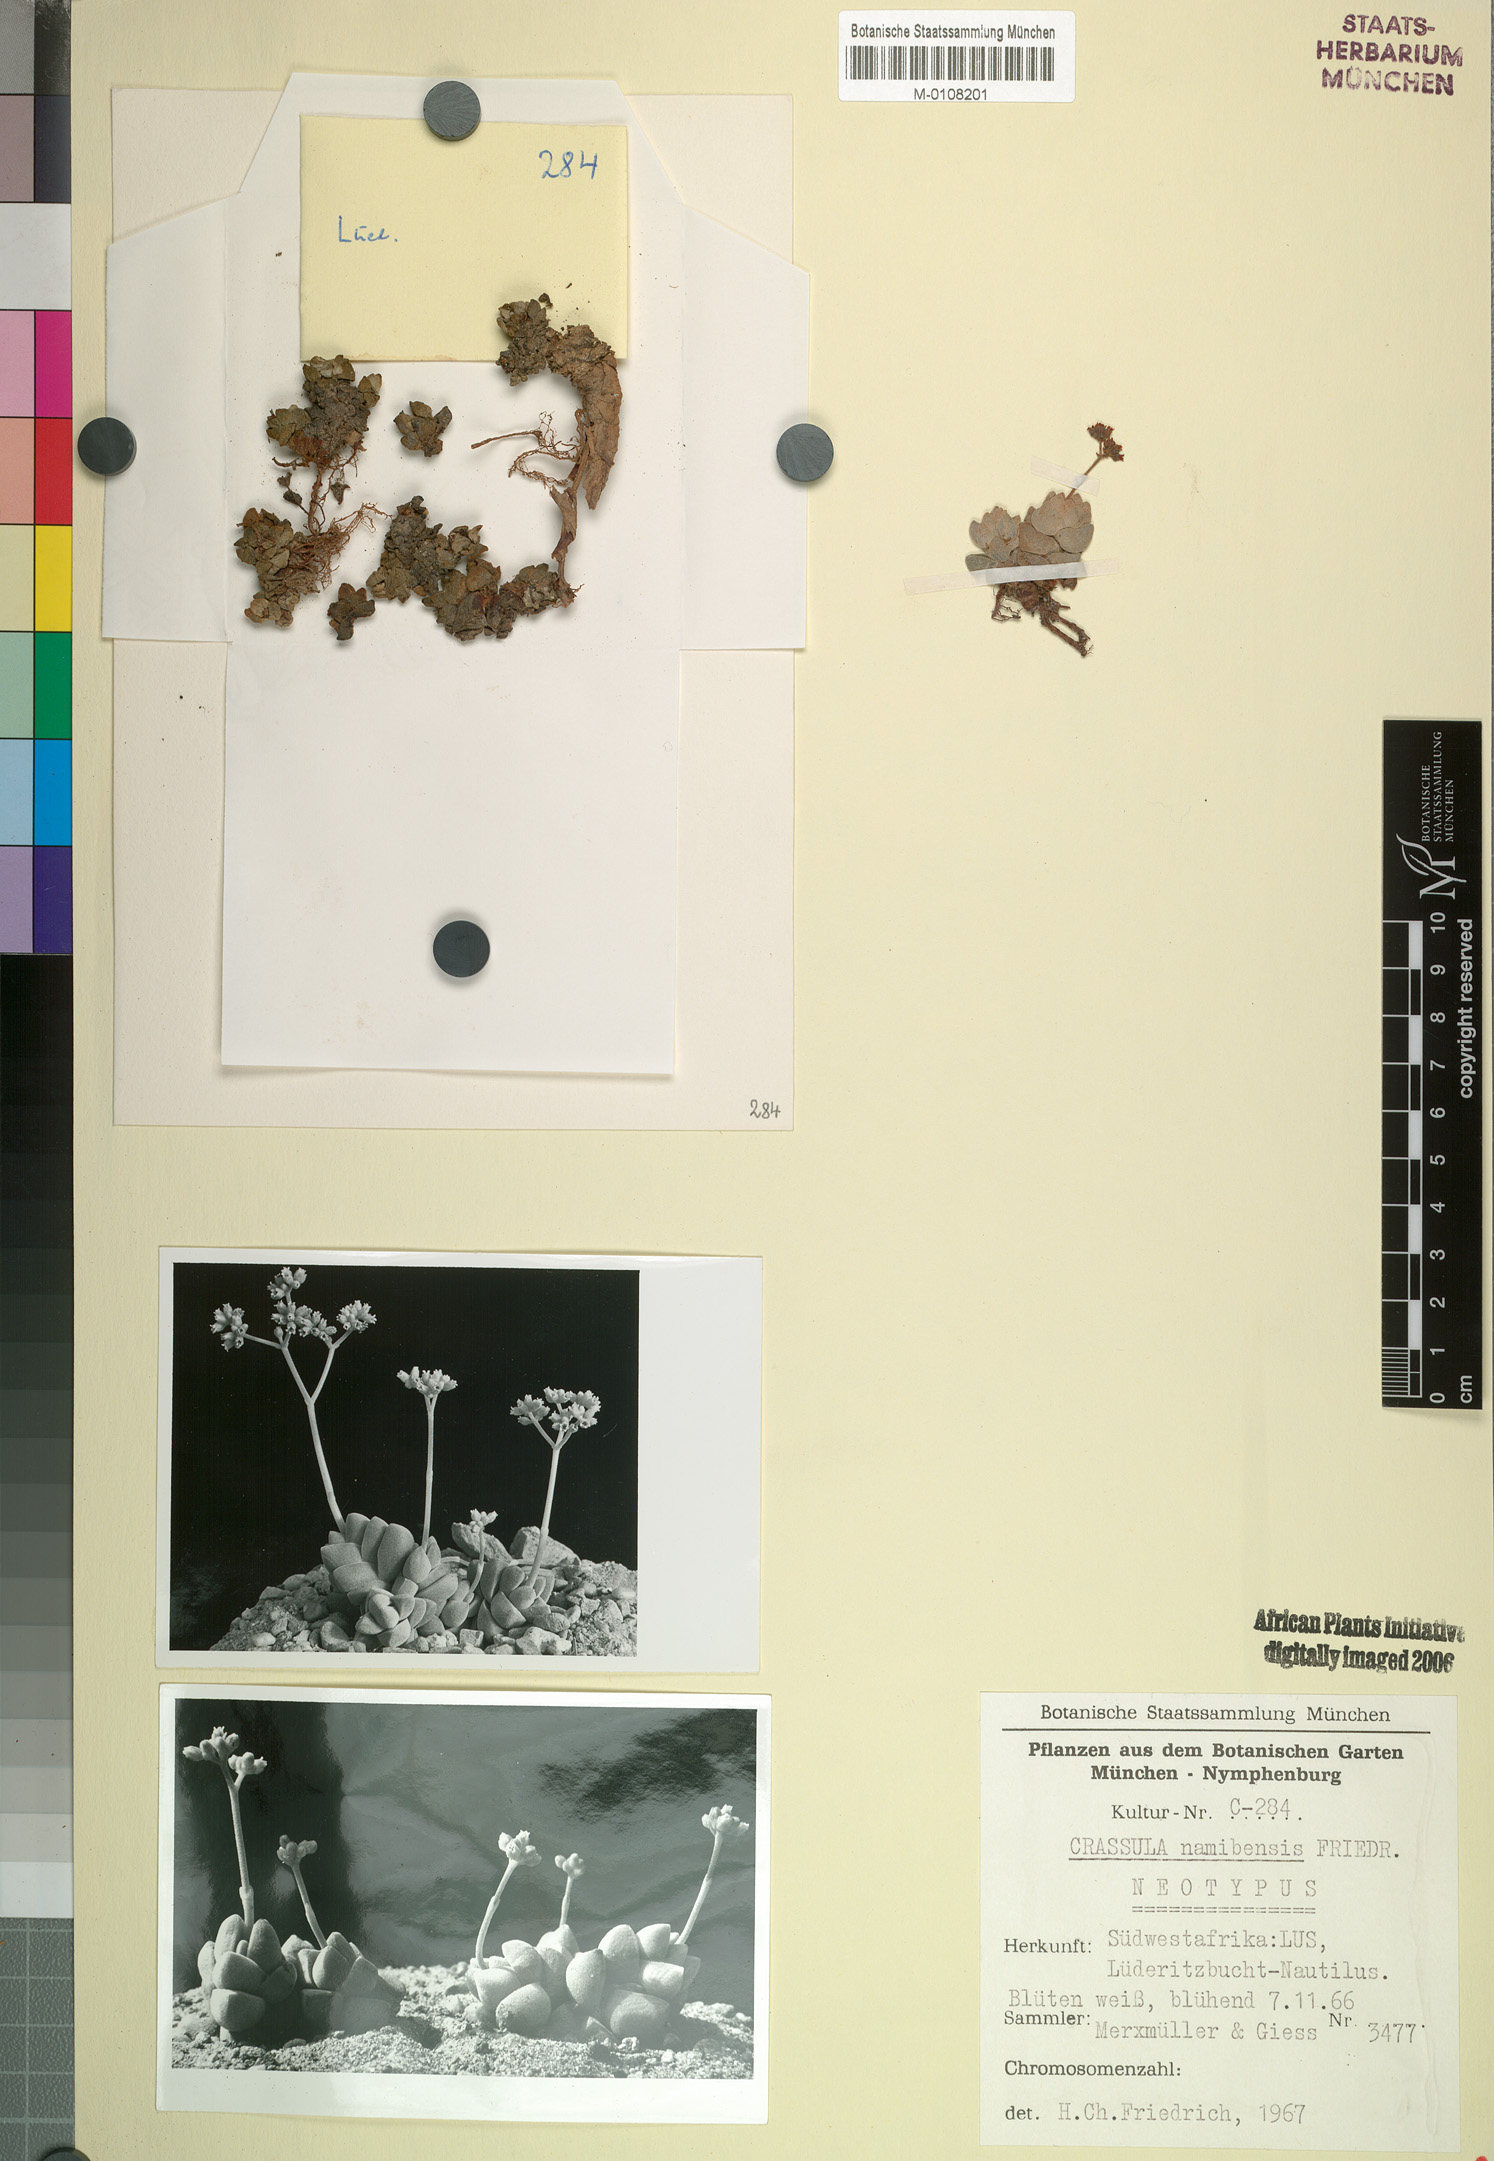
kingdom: Plantae
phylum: Tracheophyta
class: Magnoliopsida
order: Saxifragales
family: Crassulaceae
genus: Crassula
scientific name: Crassula elegans
